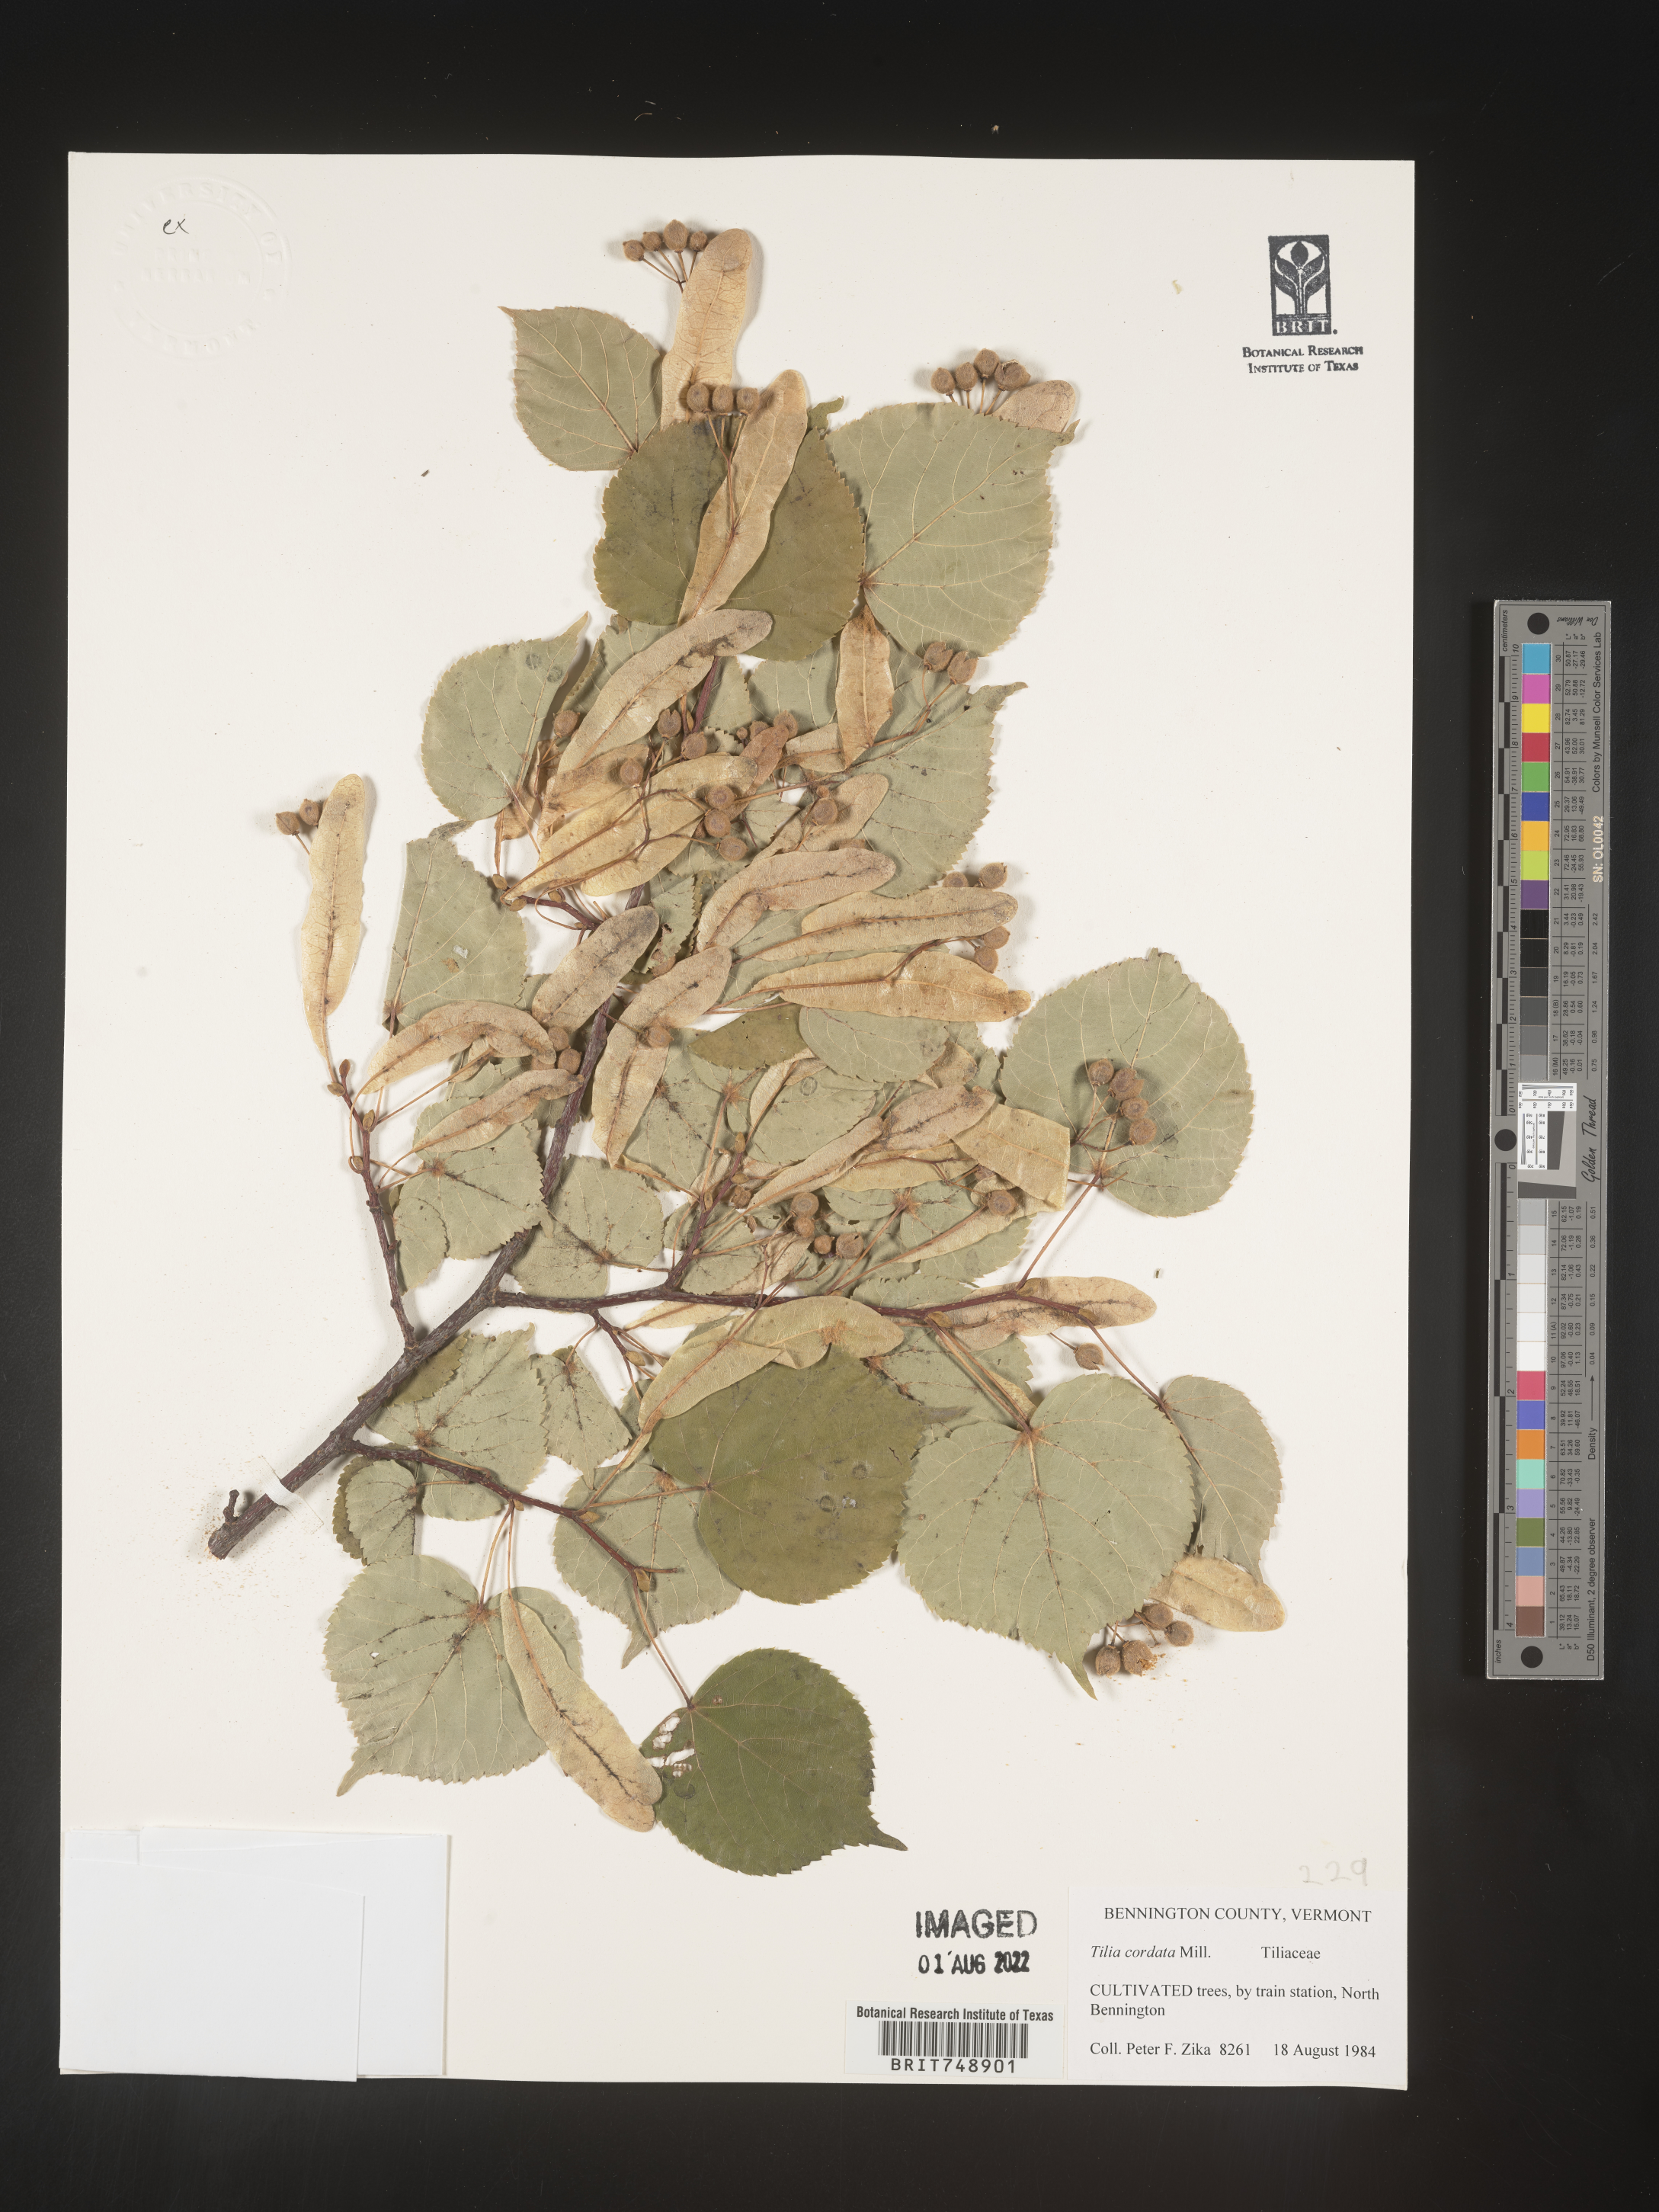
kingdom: Plantae
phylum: Tracheophyta
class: Magnoliopsida
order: Malvales
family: Malvaceae
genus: Tilia
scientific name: Tilia
